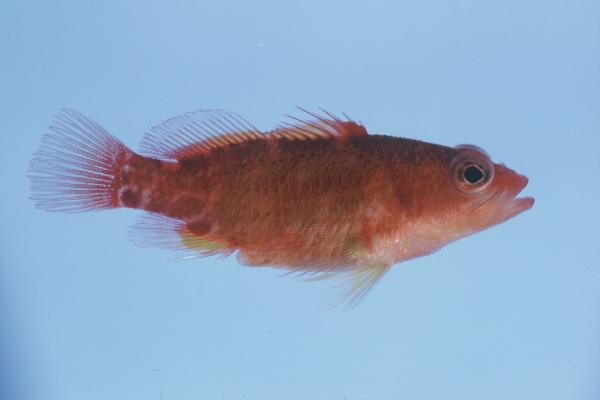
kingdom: Animalia
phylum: Chordata
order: Perciformes
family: Serranidae
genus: Plectranthias
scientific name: Plectranthias winniensis
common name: Redblotch perchlet
